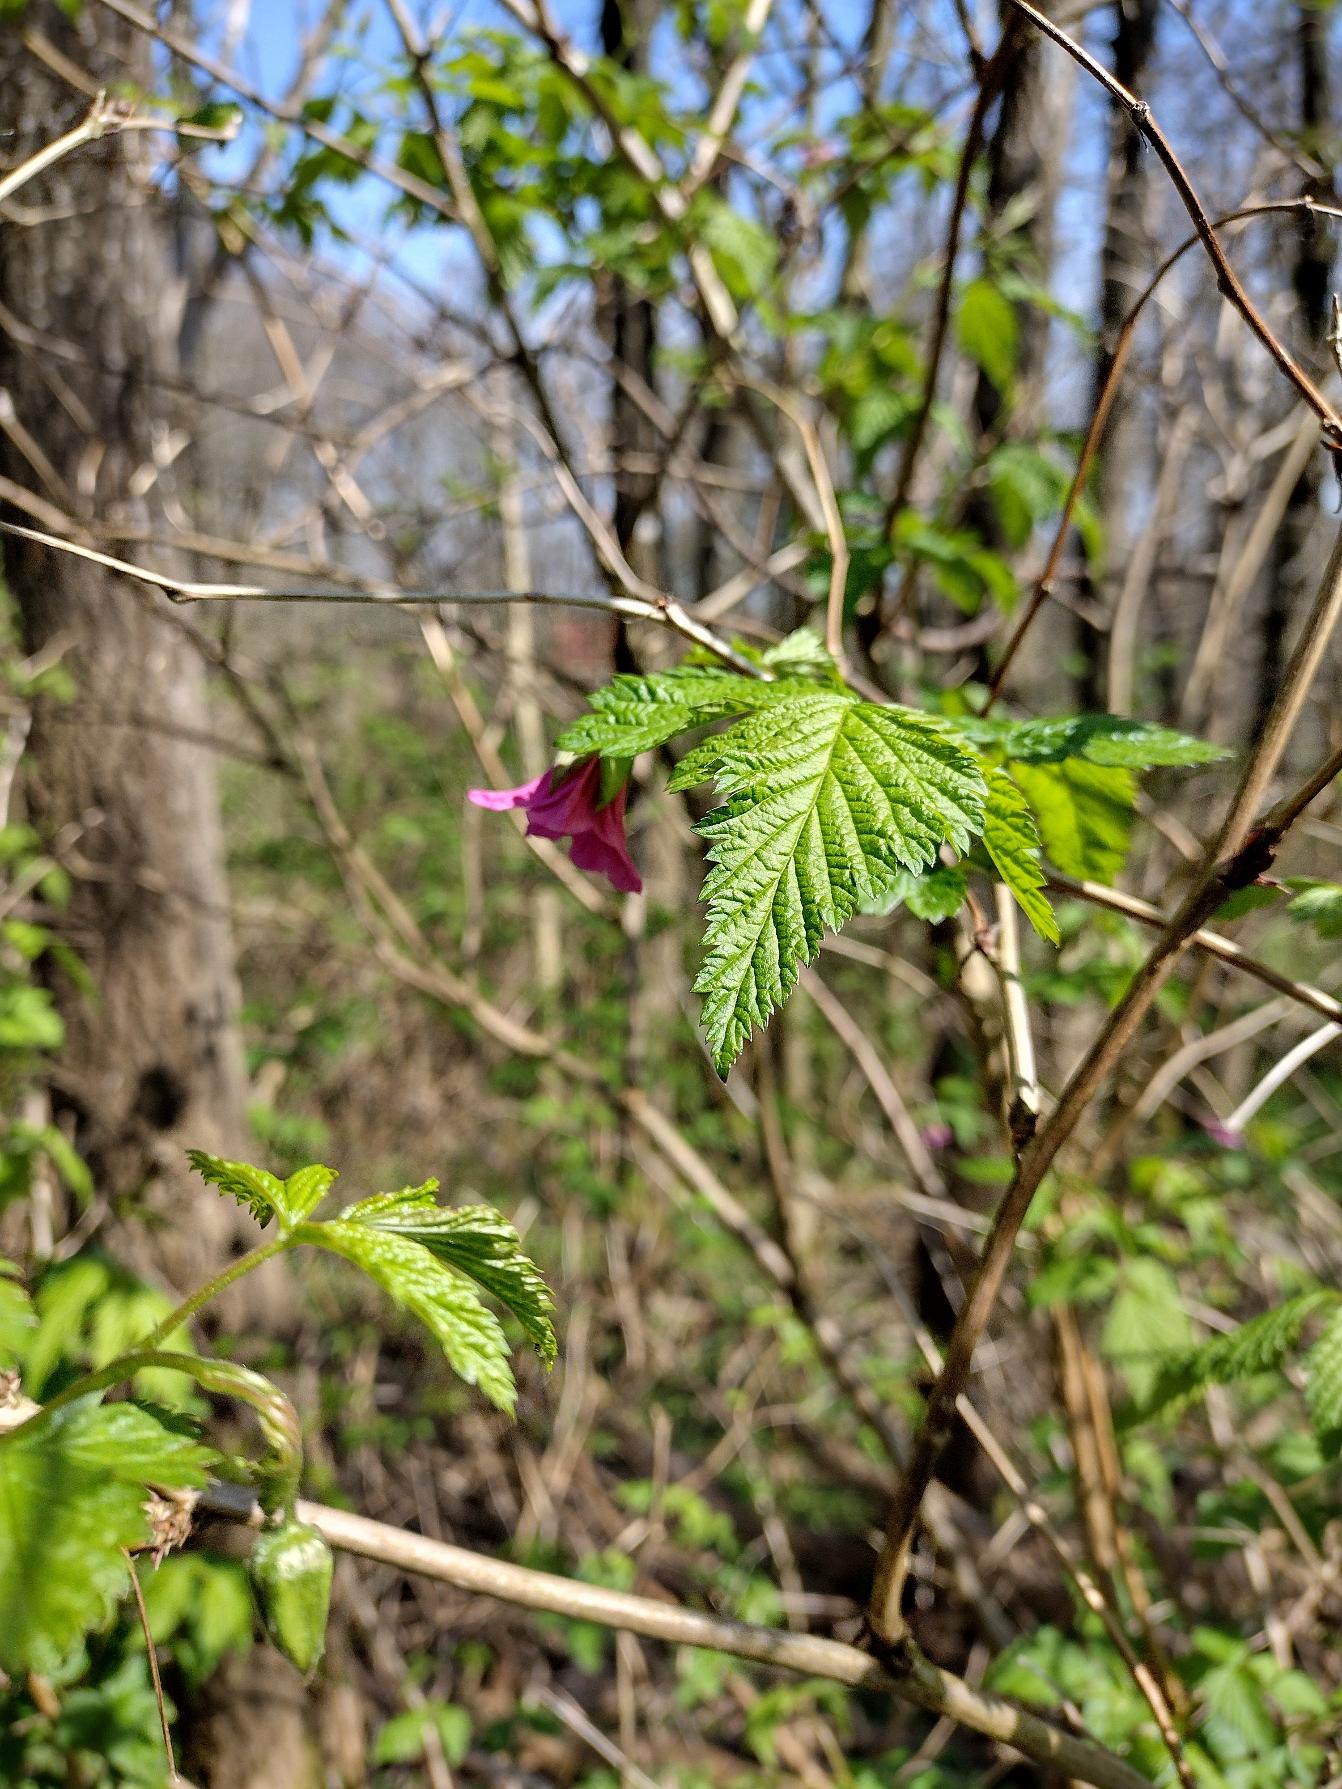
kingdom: Plantae
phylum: Tracheophyta
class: Magnoliopsida
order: Rosales
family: Rosaceae
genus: Rubus
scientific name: Rubus spectabilis
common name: Laksebær
